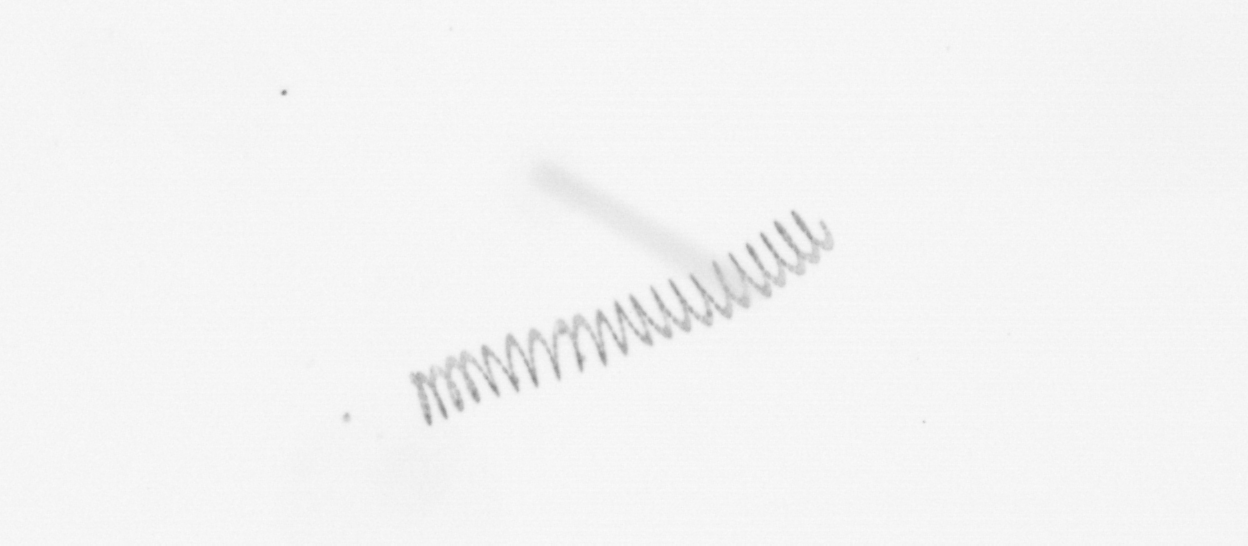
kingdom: Chromista
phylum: Ochrophyta
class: Bacillariophyceae
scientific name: Bacillariophyceae
